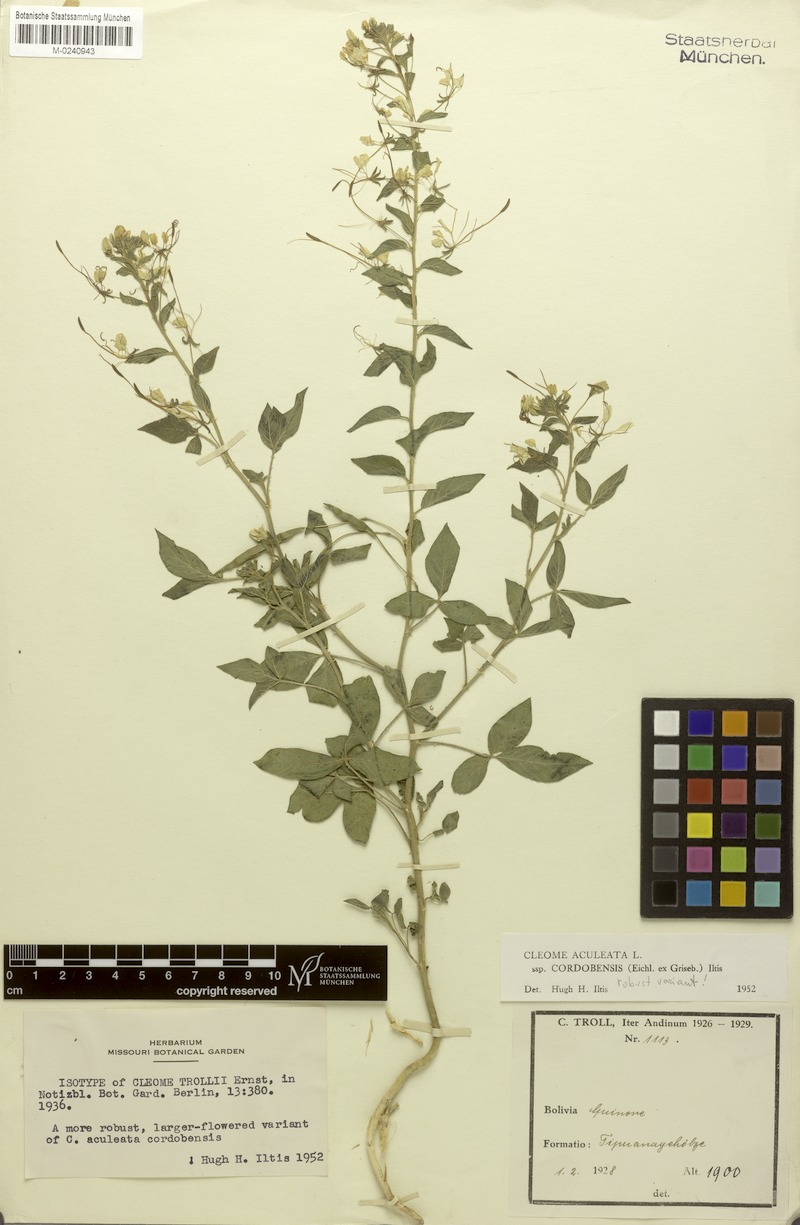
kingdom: Plantae
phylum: Tracheophyta
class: Magnoliopsida
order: Brassicales
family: Cleomaceae
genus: Tarenaya
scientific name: Tarenaya cordobensis
